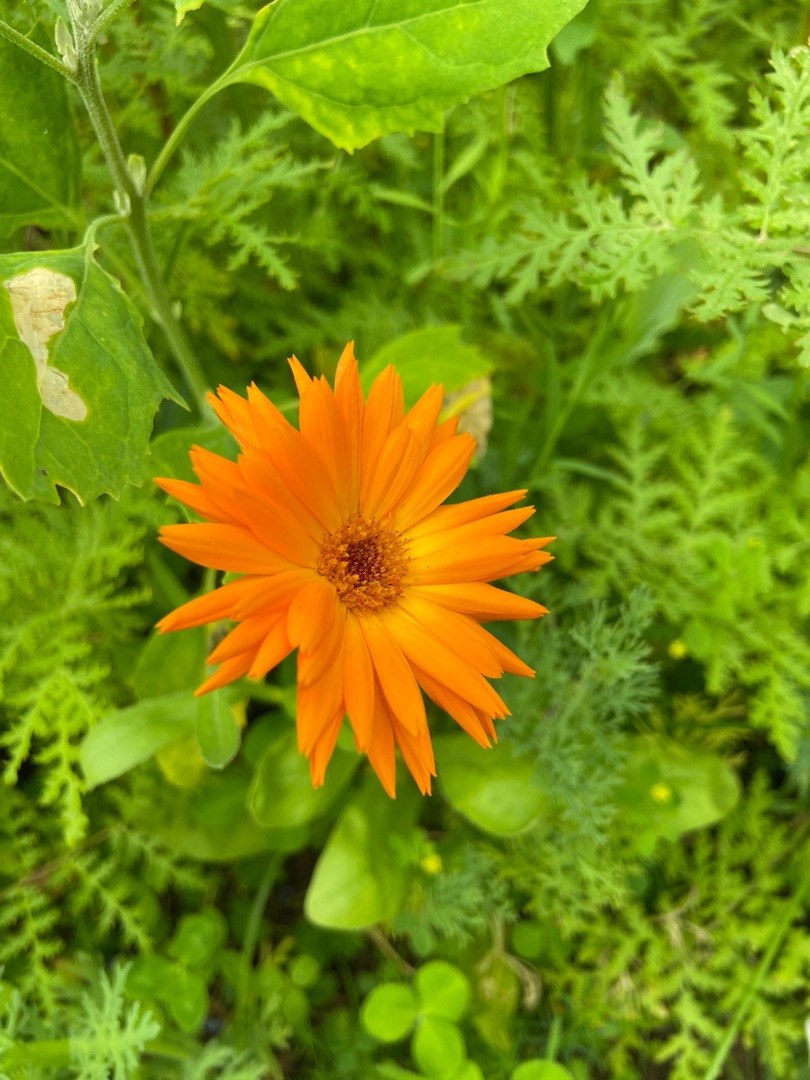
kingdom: Plantae
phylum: Tracheophyta
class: Magnoliopsida
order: Asterales
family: Asteraceae
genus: Calendula
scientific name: Calendula officinalis
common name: Have-morgenfrue
